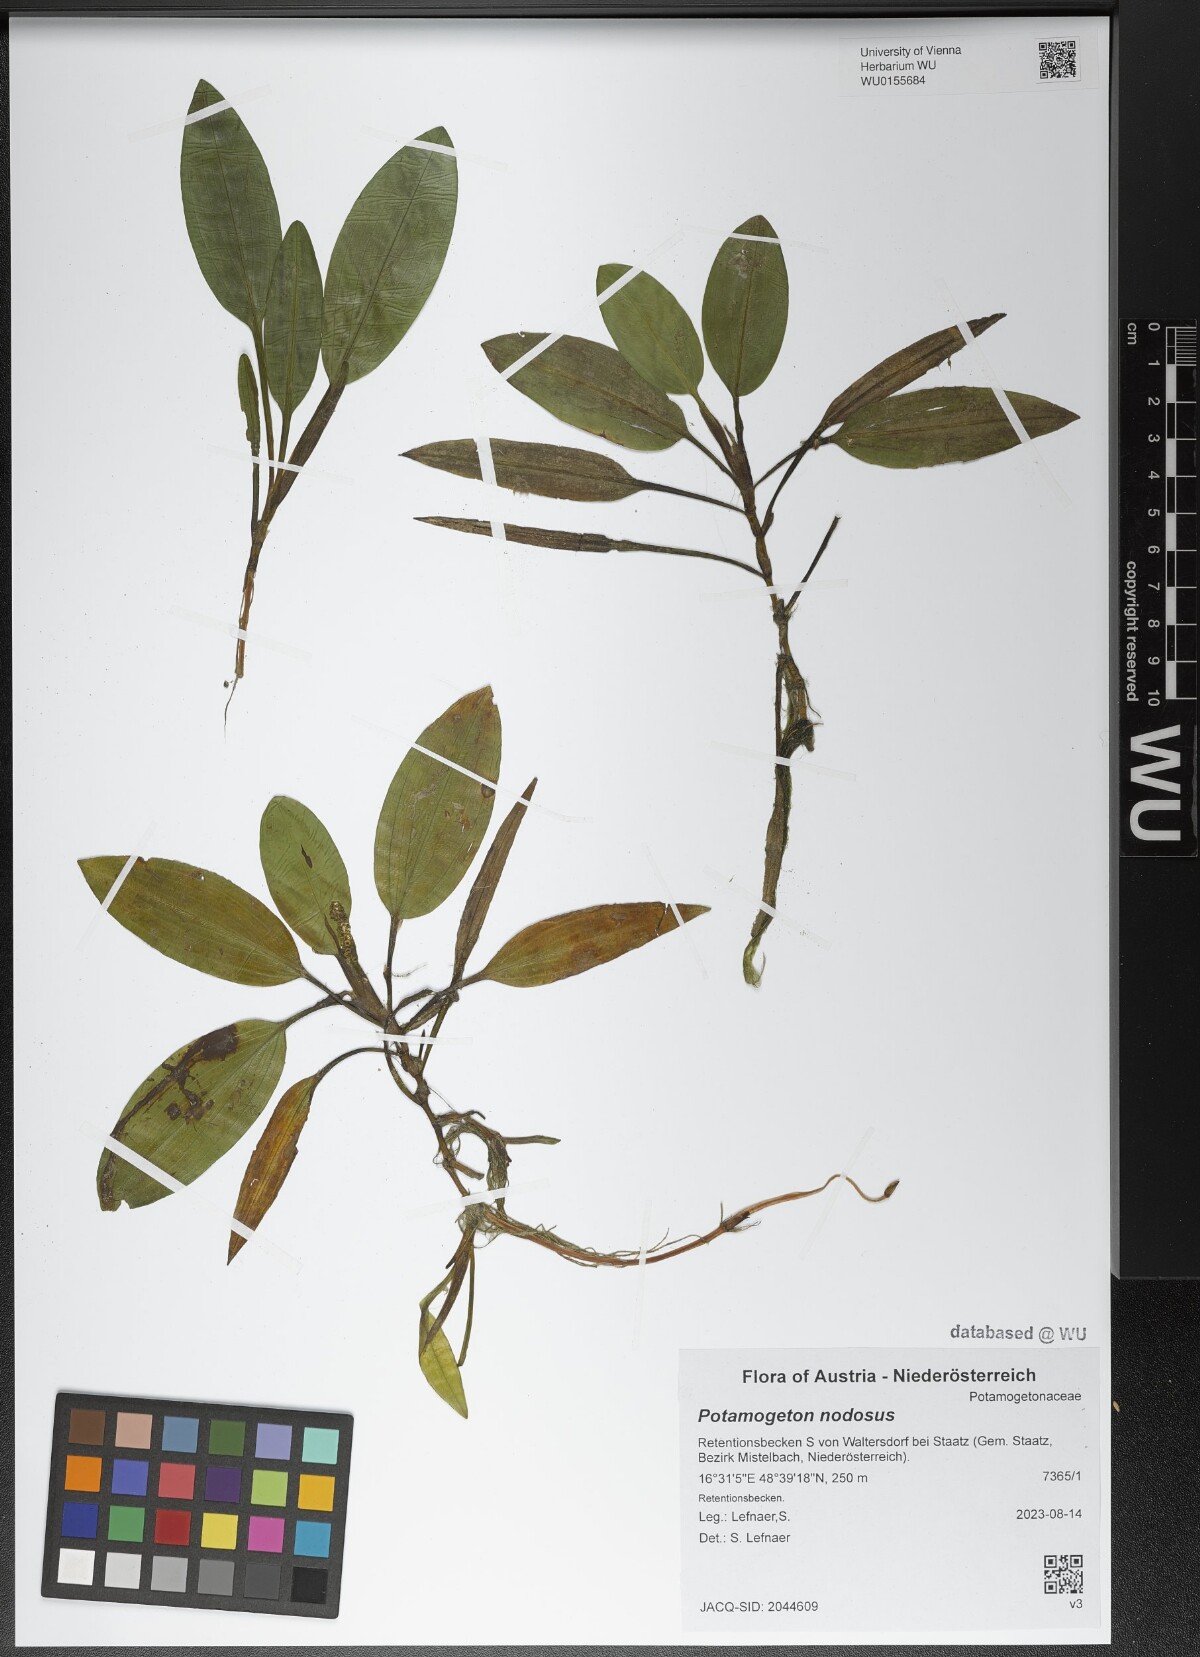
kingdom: Plantae
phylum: Tracheophyta
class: Liliopsida
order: Alismatales
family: Potamogetonaceae
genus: Potamogeton
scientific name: Potamogeton nodosus
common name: Loddon pondweed
